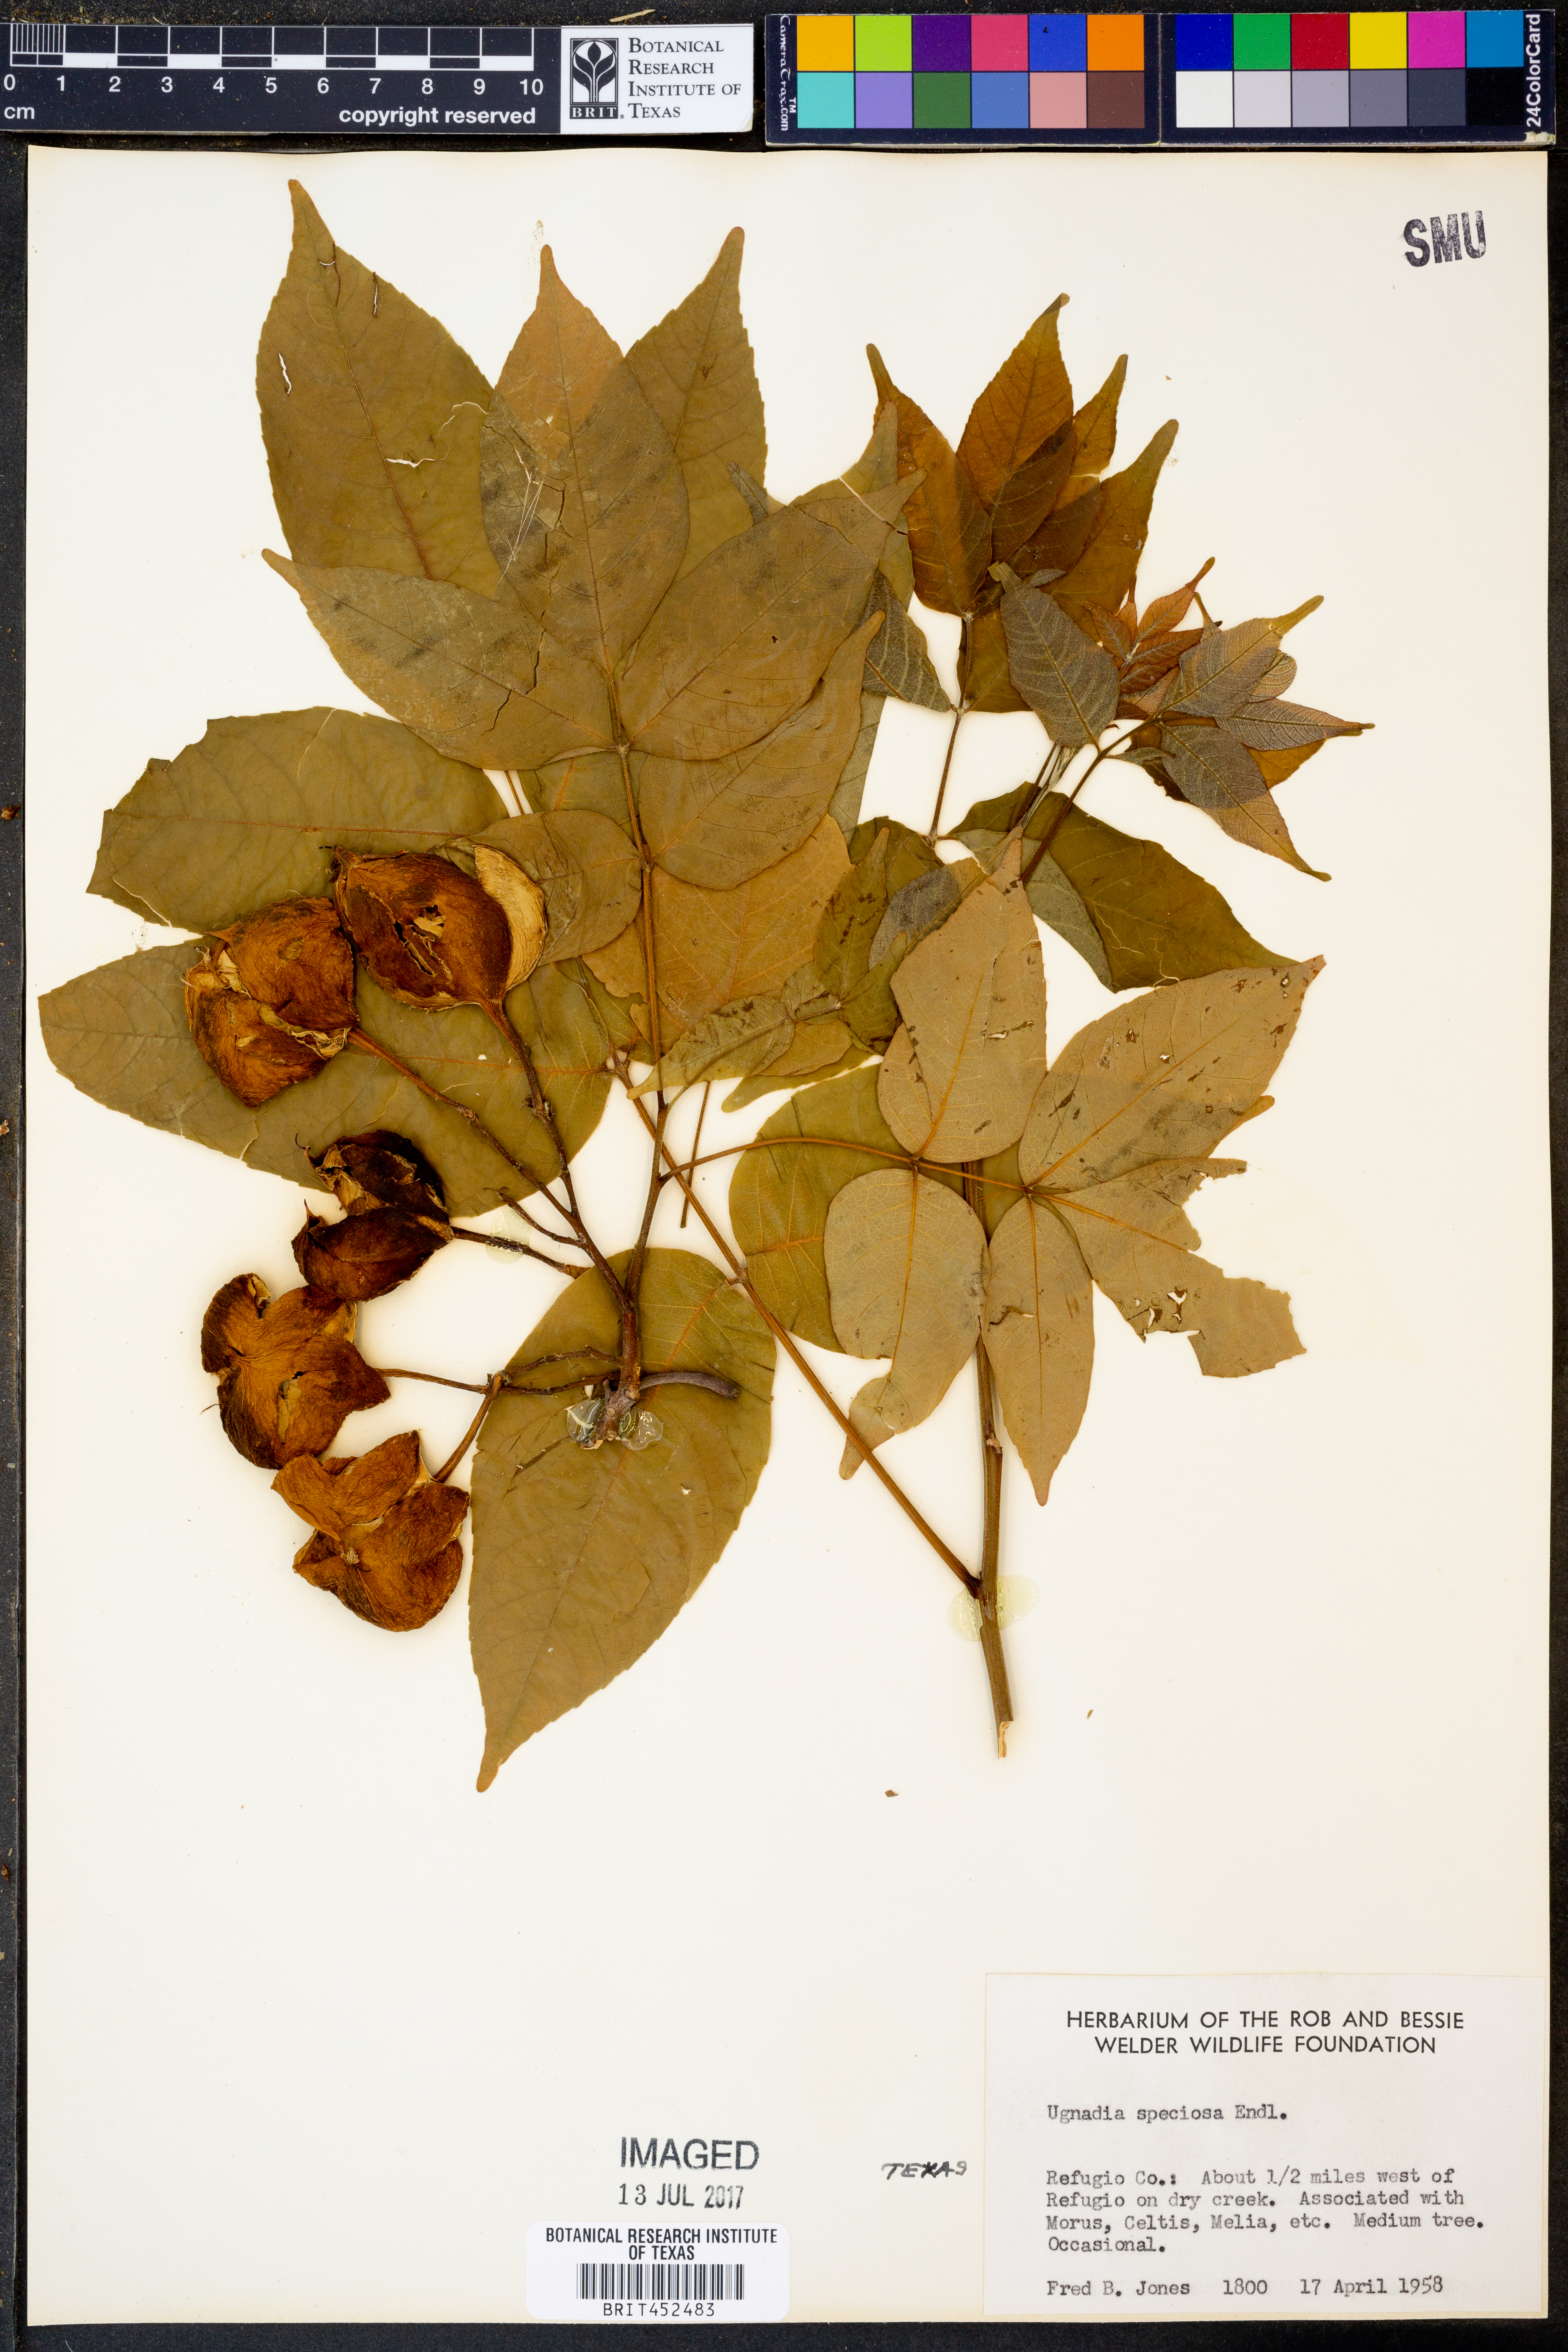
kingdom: Plantae
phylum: Tracheophyta
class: Magnoliopsida
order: Sapindales
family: Sapindaceae
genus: Ungnadia
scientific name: Ungnadia speciosa
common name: Texas-buckeye
